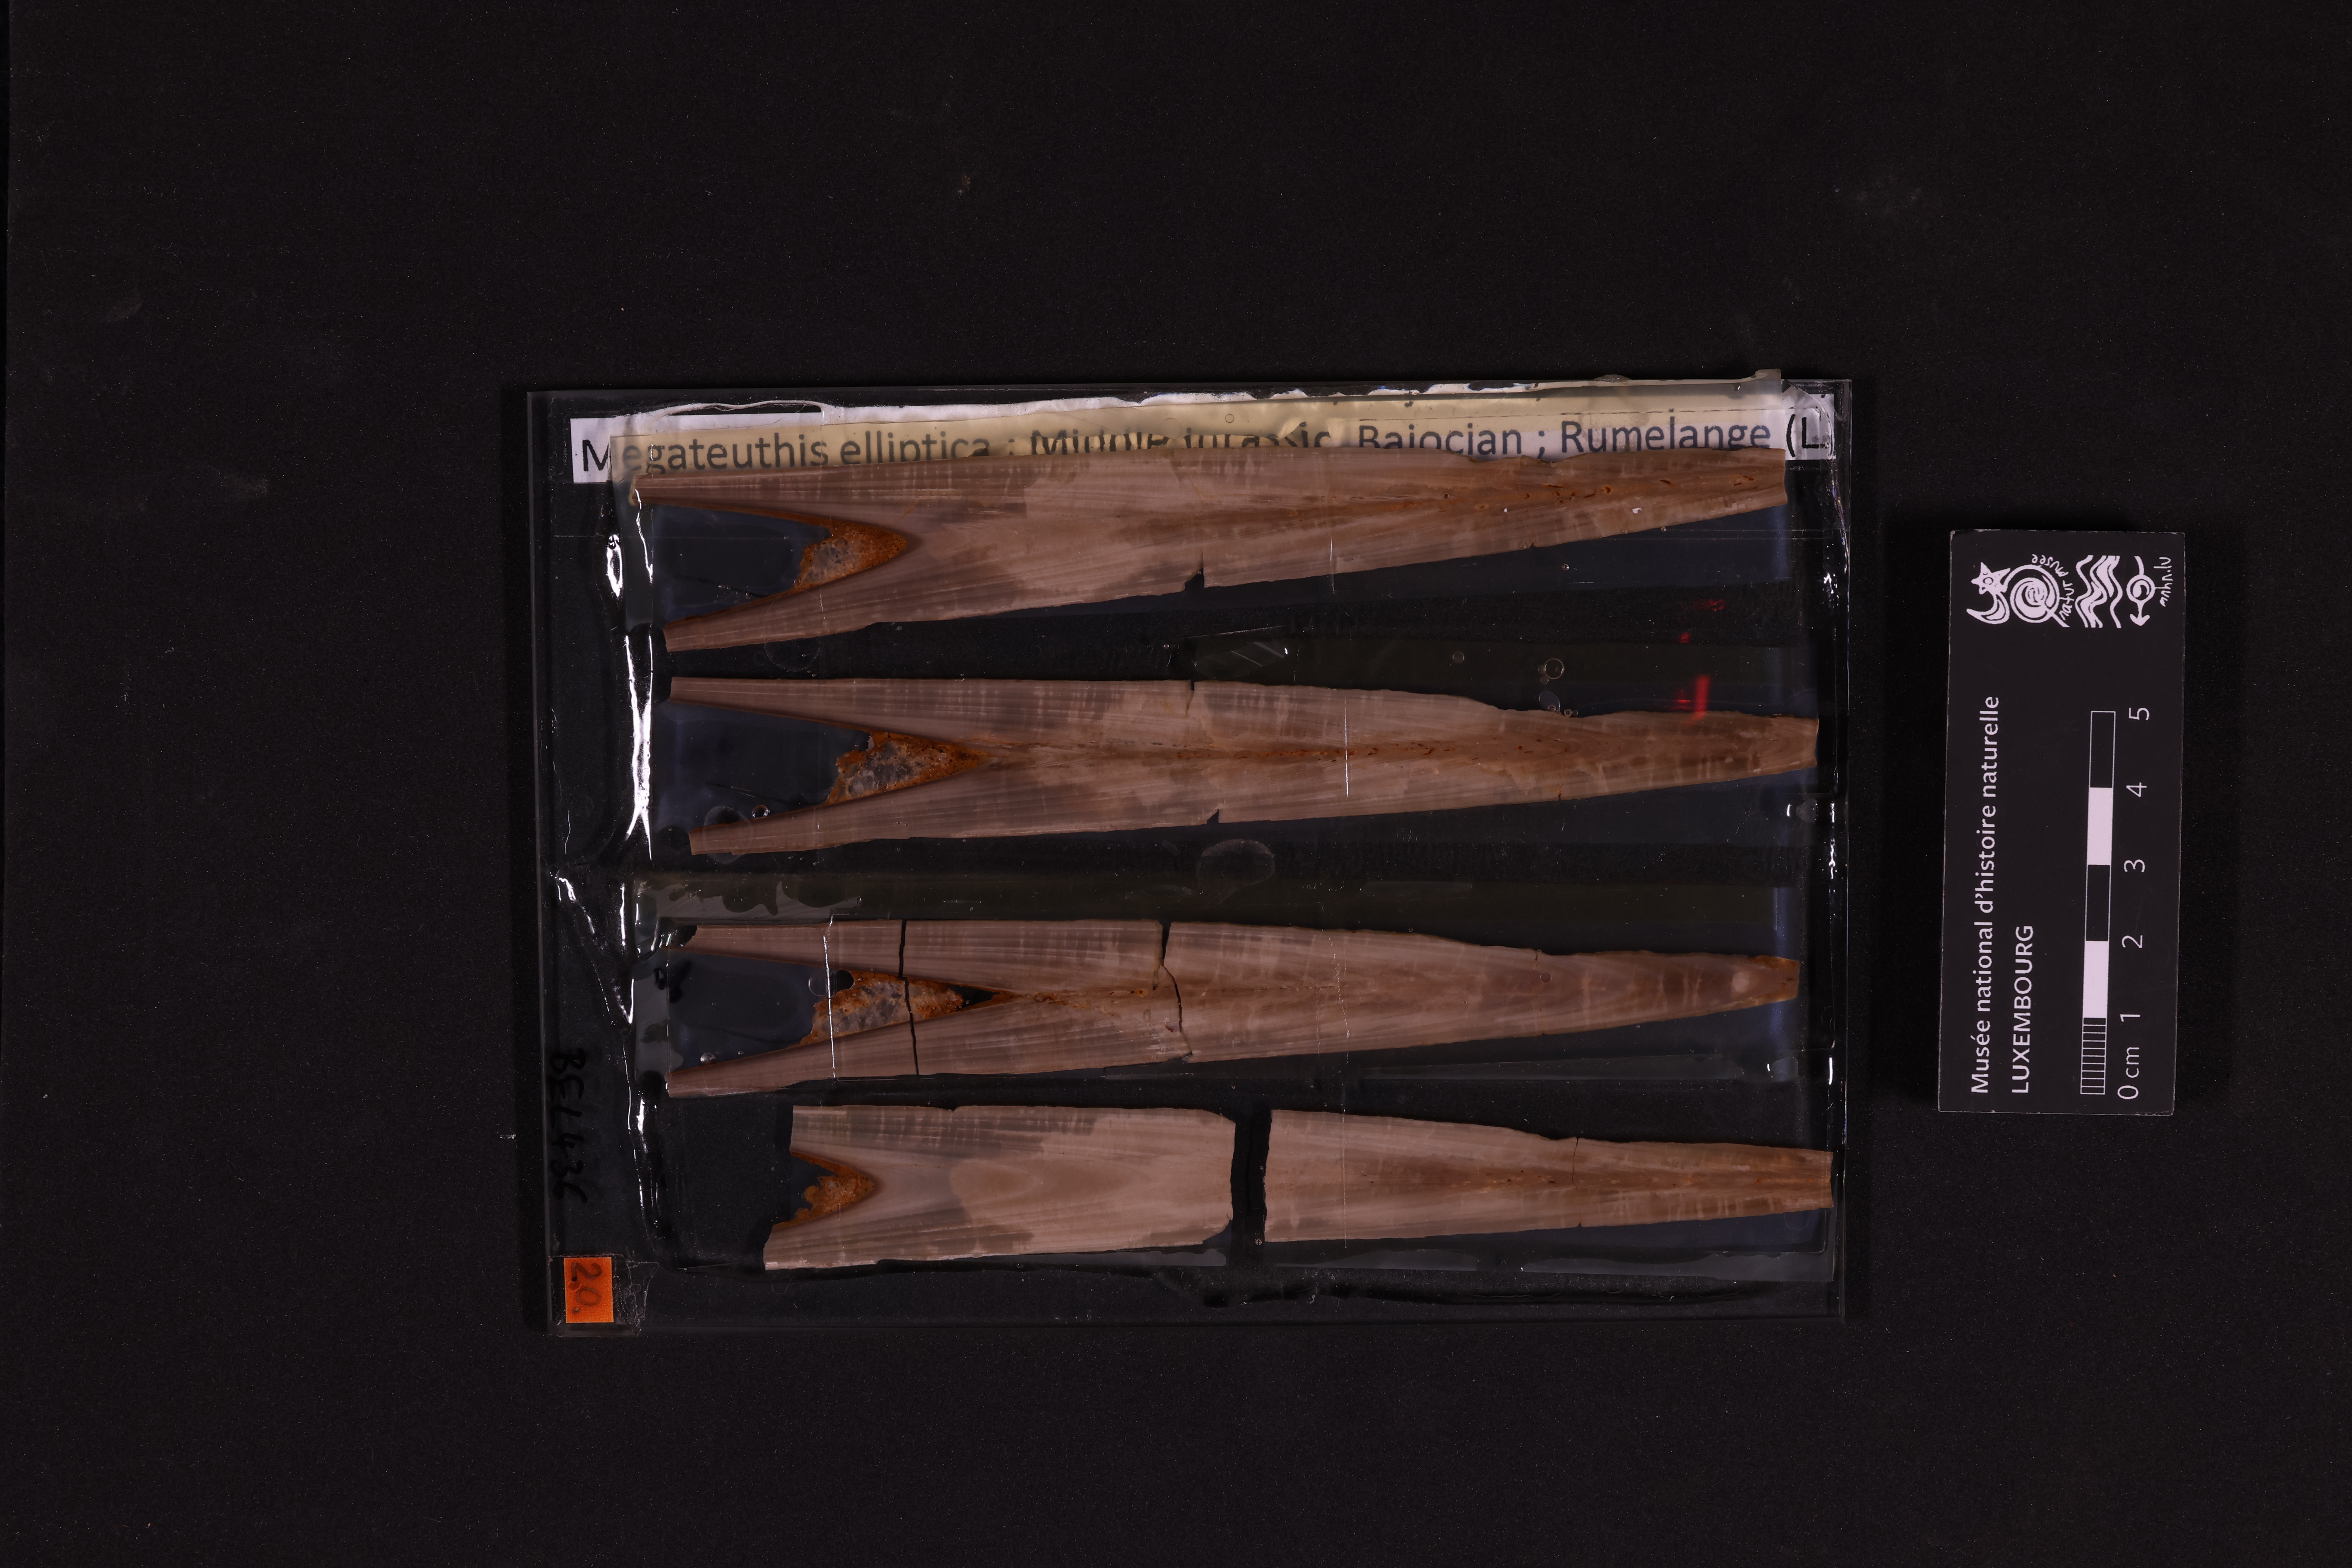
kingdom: Animalia
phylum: Mollusca
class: Cephalopoda
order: Belemnitida
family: Megateuthididae
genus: Megateuthis
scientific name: Megateuthis
